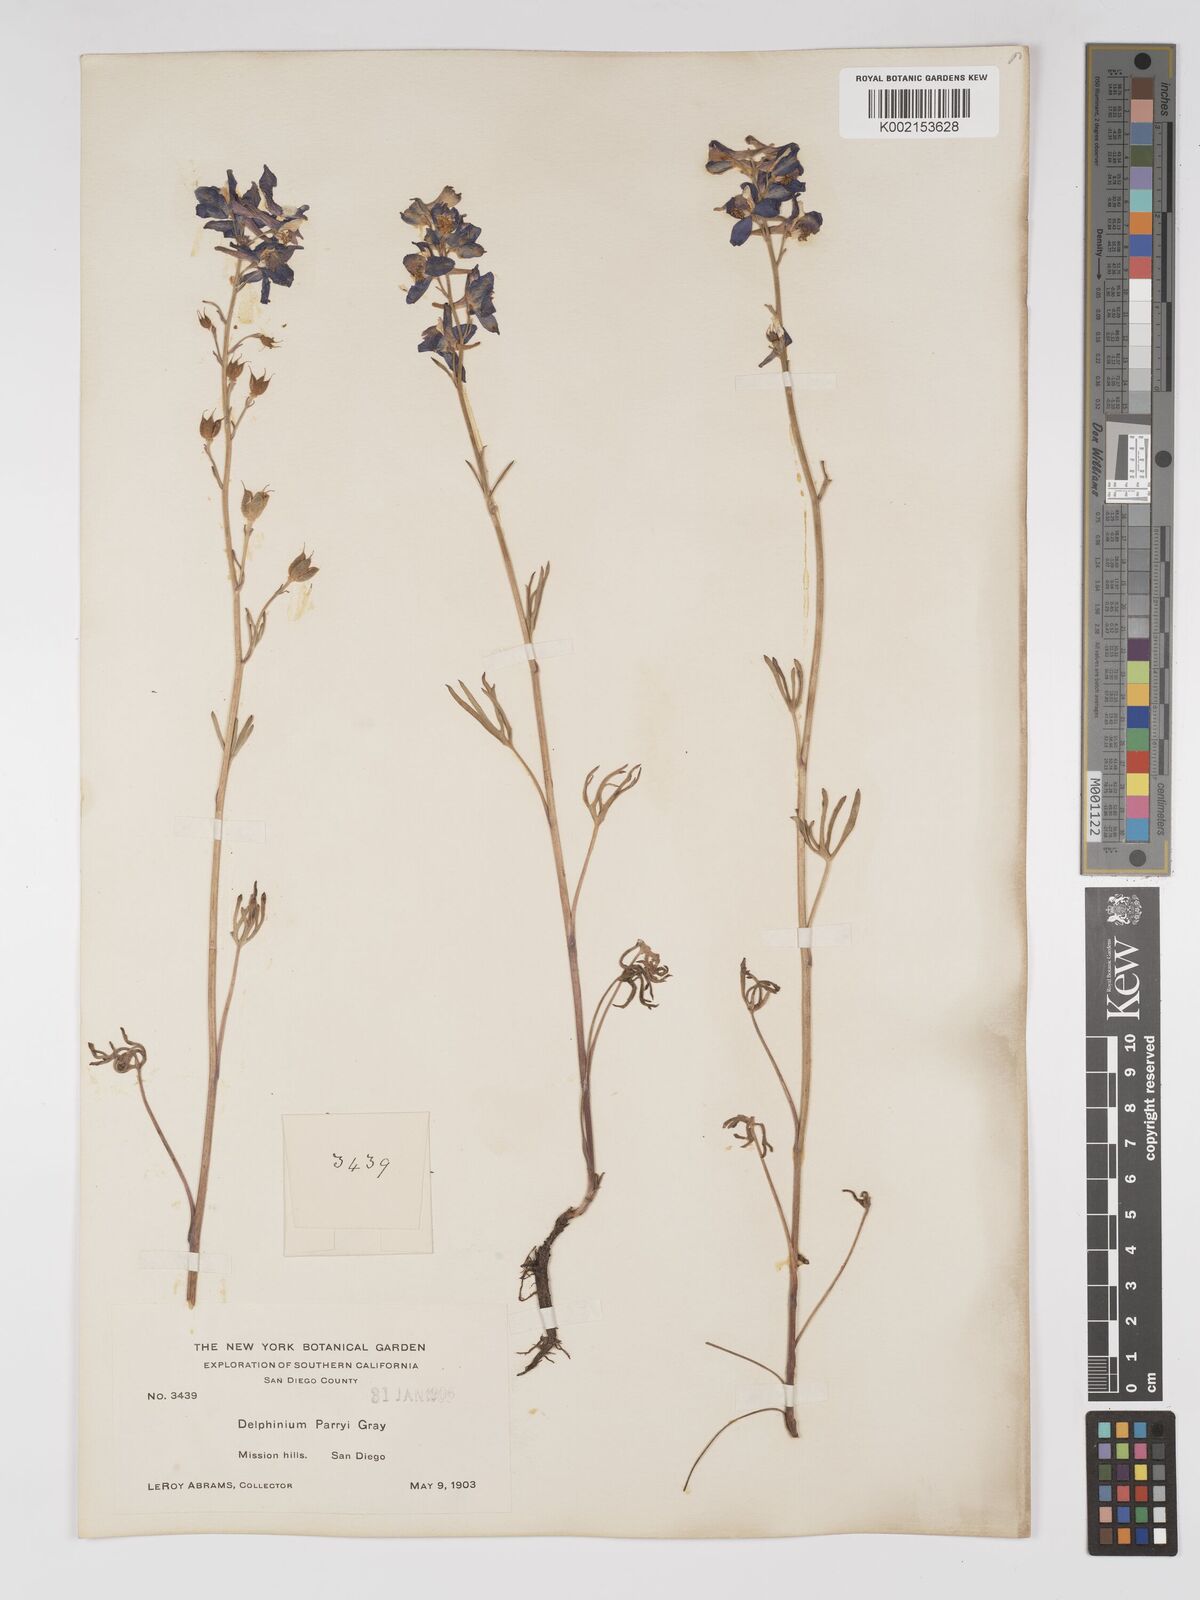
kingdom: Plantae
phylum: Tracheophyta
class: Magnoliopsida
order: Ranunculales
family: Ranunculaceae
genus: Delphinium
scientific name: Delphinium parryi
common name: Parry's larkspur
